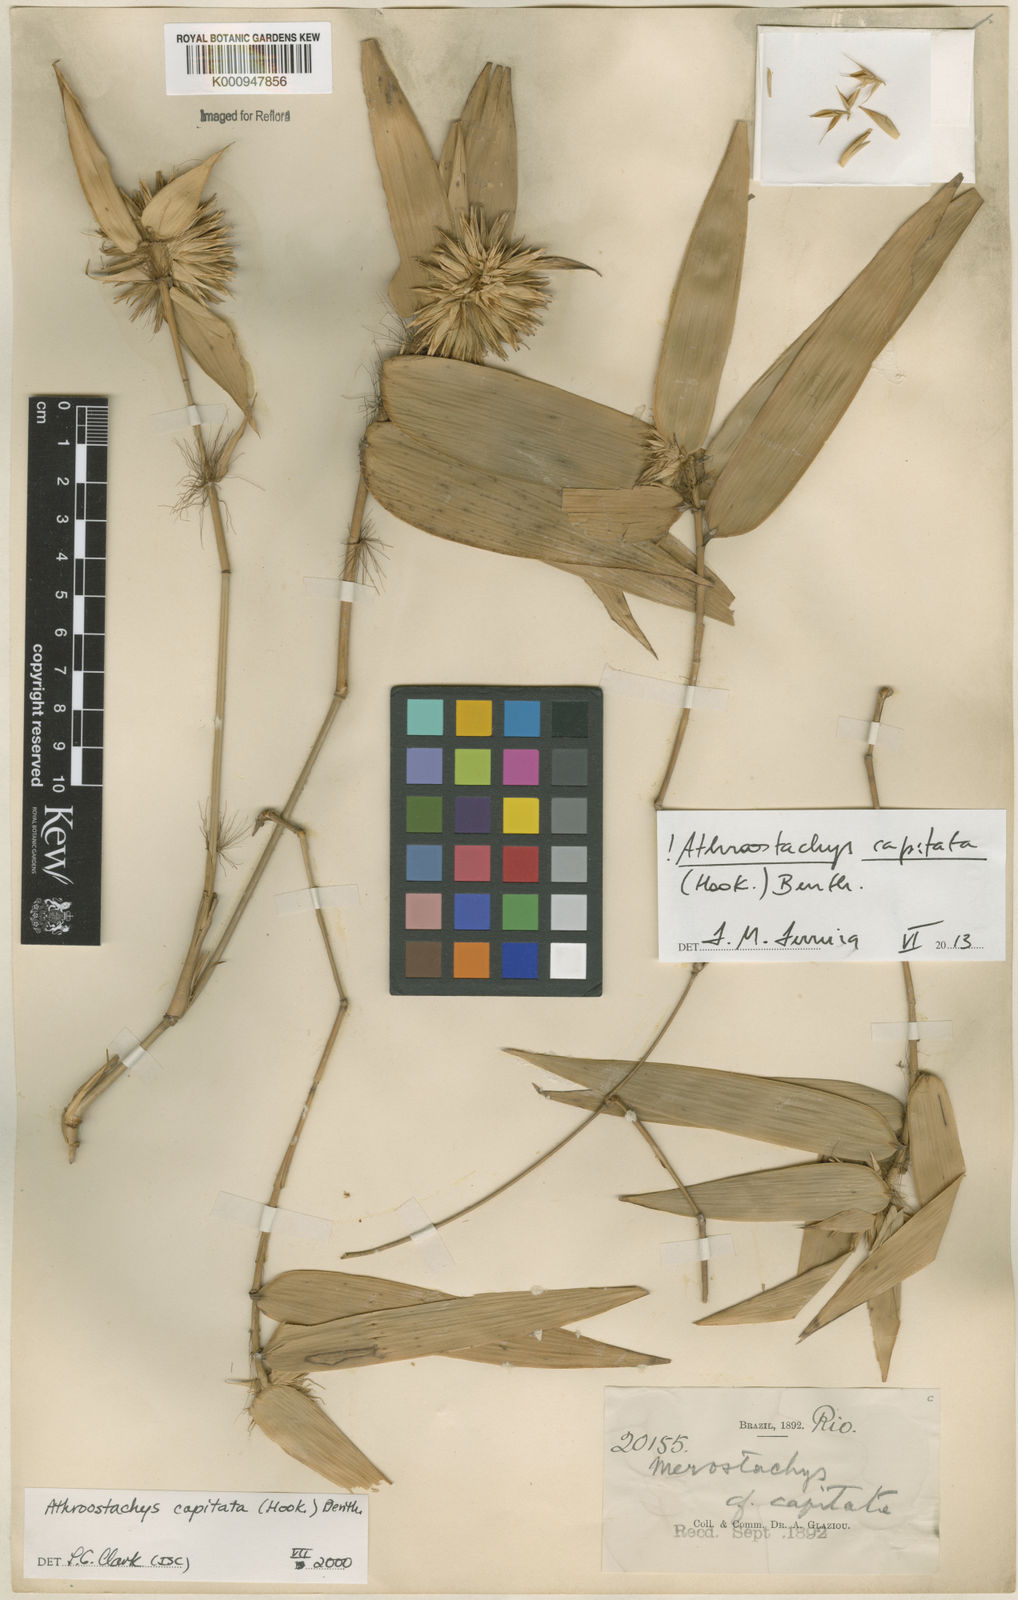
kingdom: Plantae
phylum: Tracheophyta
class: Liliopsida
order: Poales
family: Poaceae
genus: Athroostachys
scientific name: Athroostachys capitata
